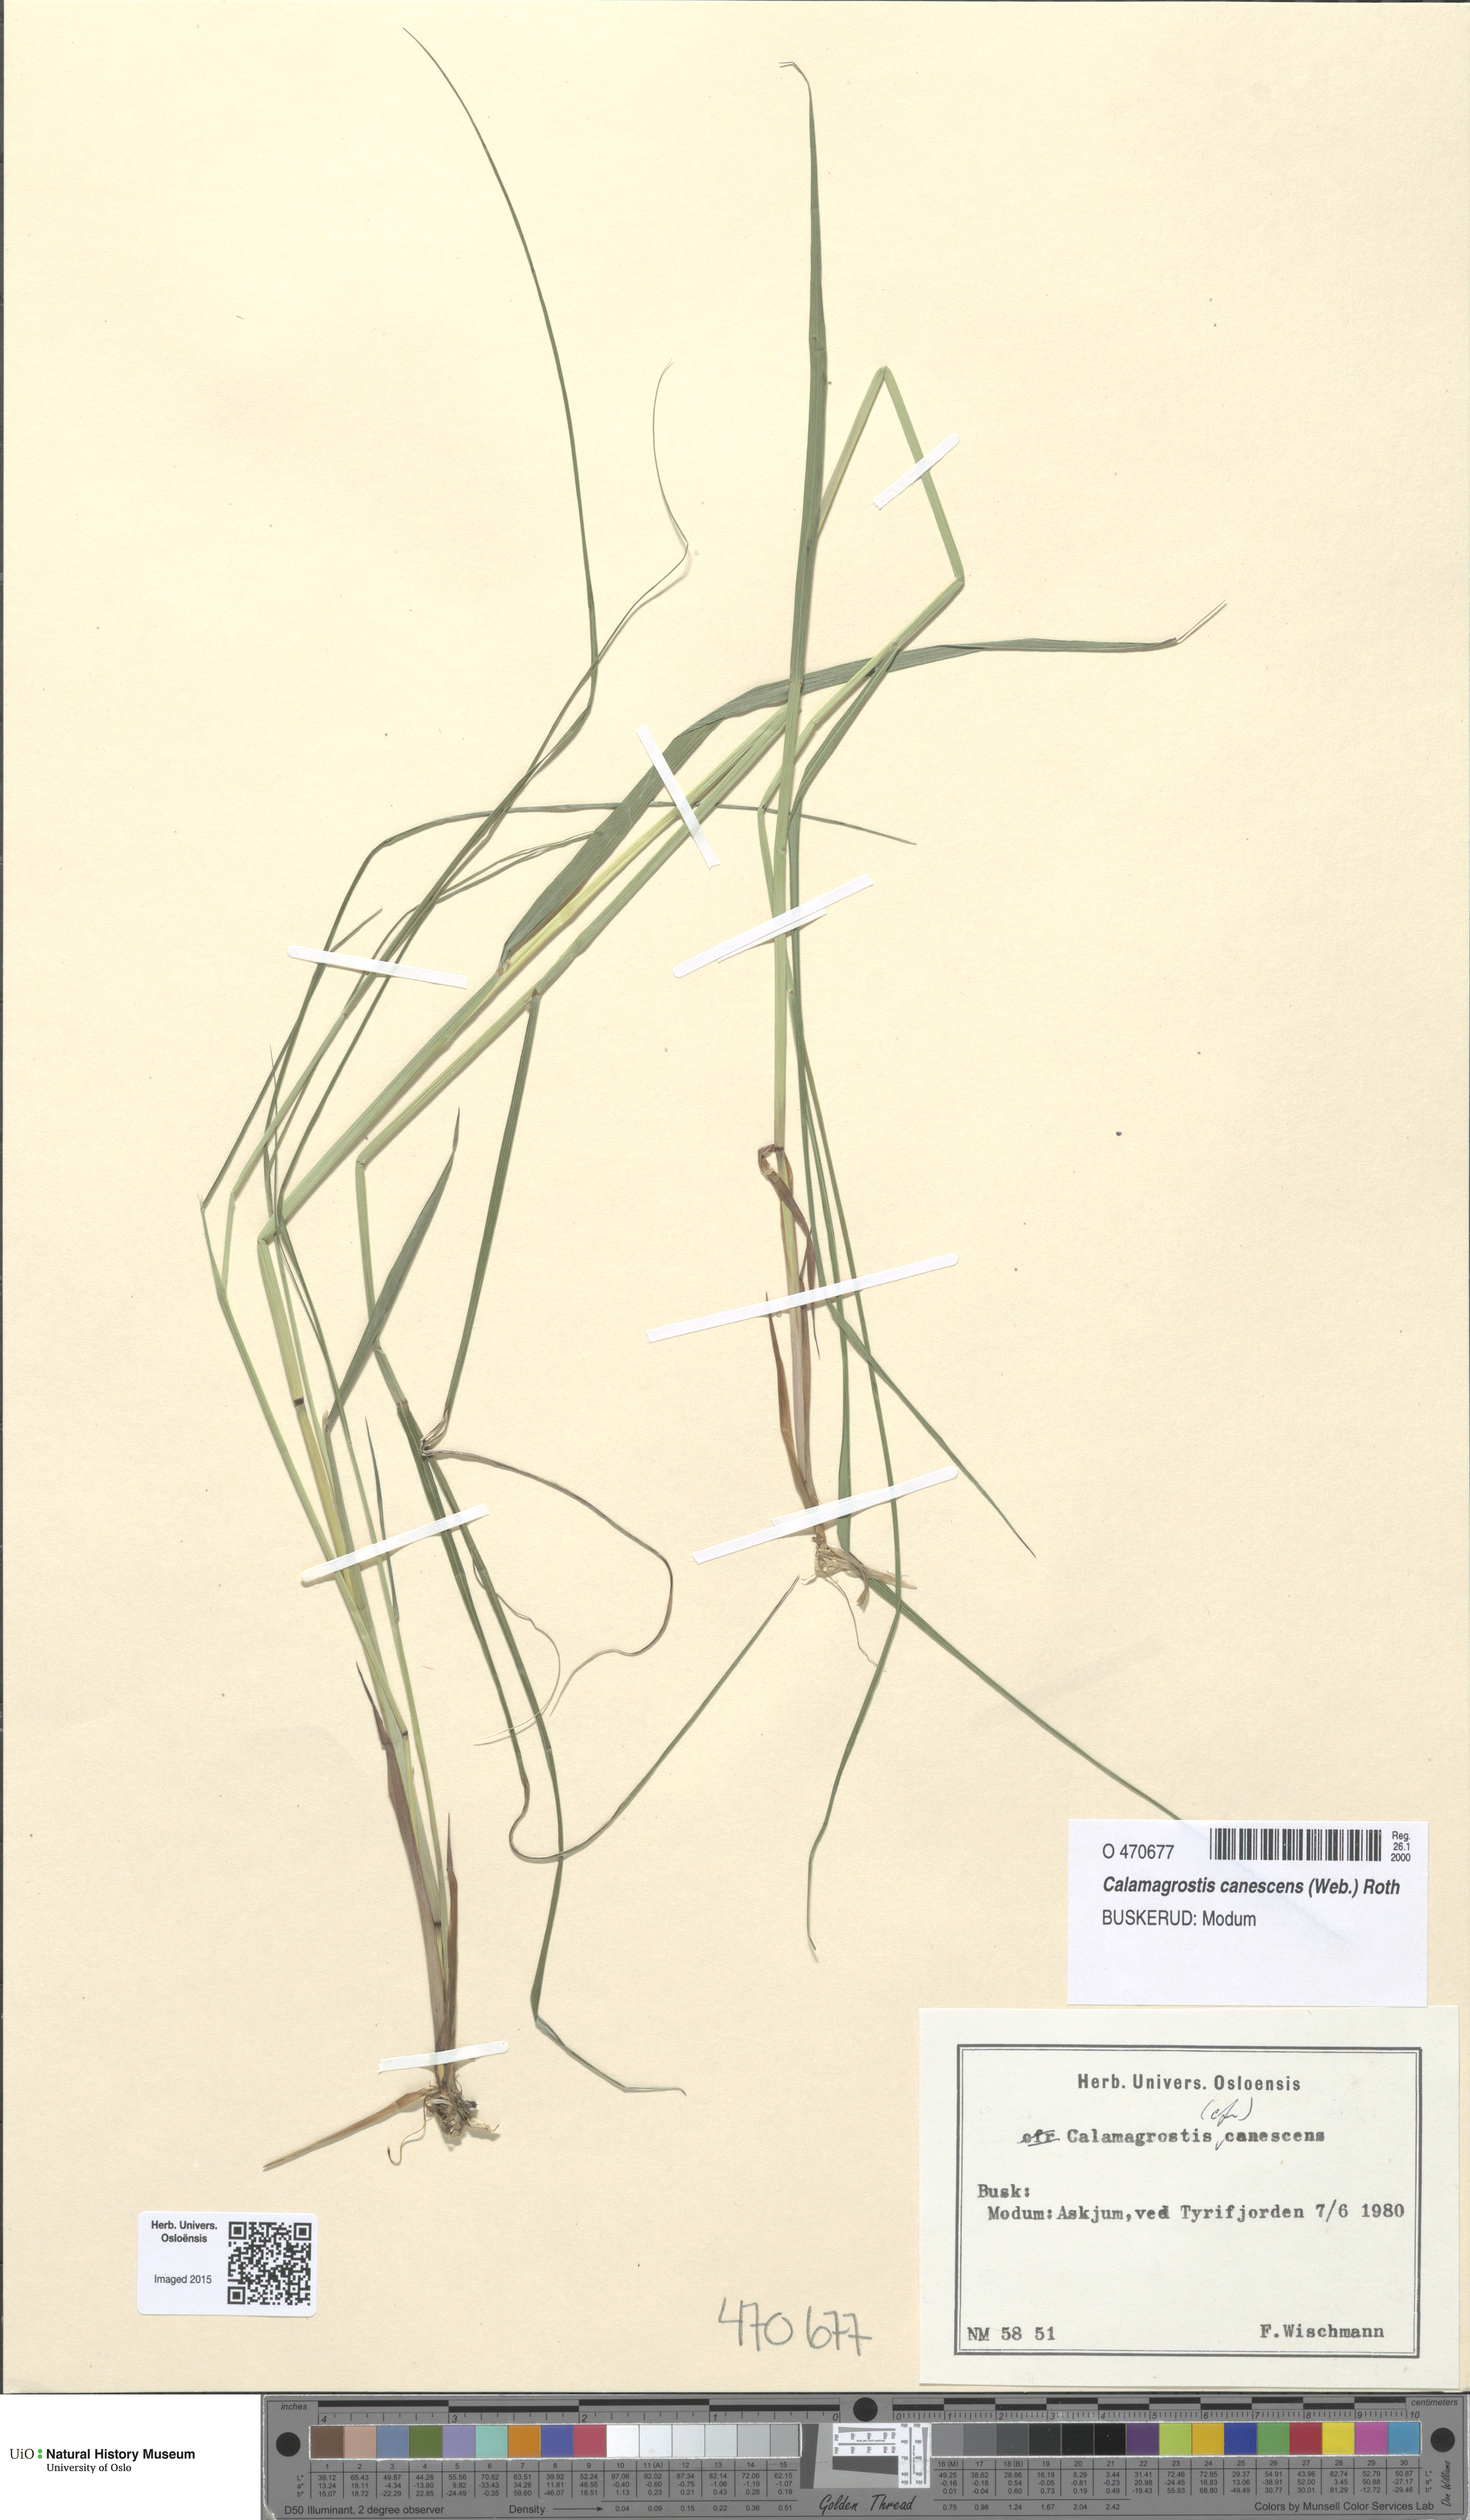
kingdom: Plantae
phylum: Tracheophyta
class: Liliopsida
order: Poales
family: Poaceae
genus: Calamagrostis
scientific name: Calamagrostis canescens
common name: Purple small-reed
